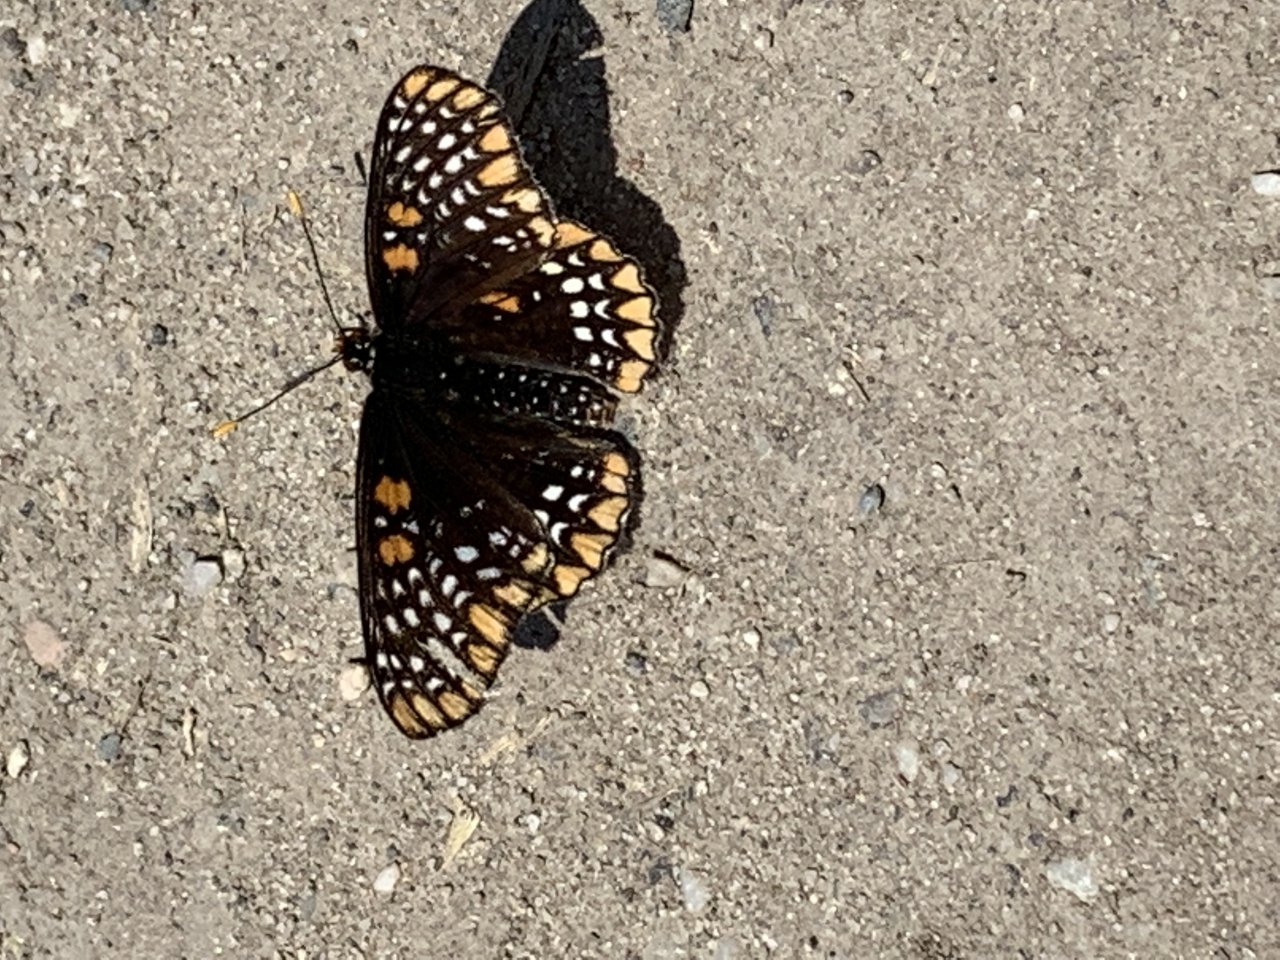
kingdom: Animalia
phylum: Arthropoda
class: Insecta
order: Lepidoptera
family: Nymphalidae
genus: Euphydryas
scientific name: Euphydryas phaeton
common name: Baltimore Checkerspot
